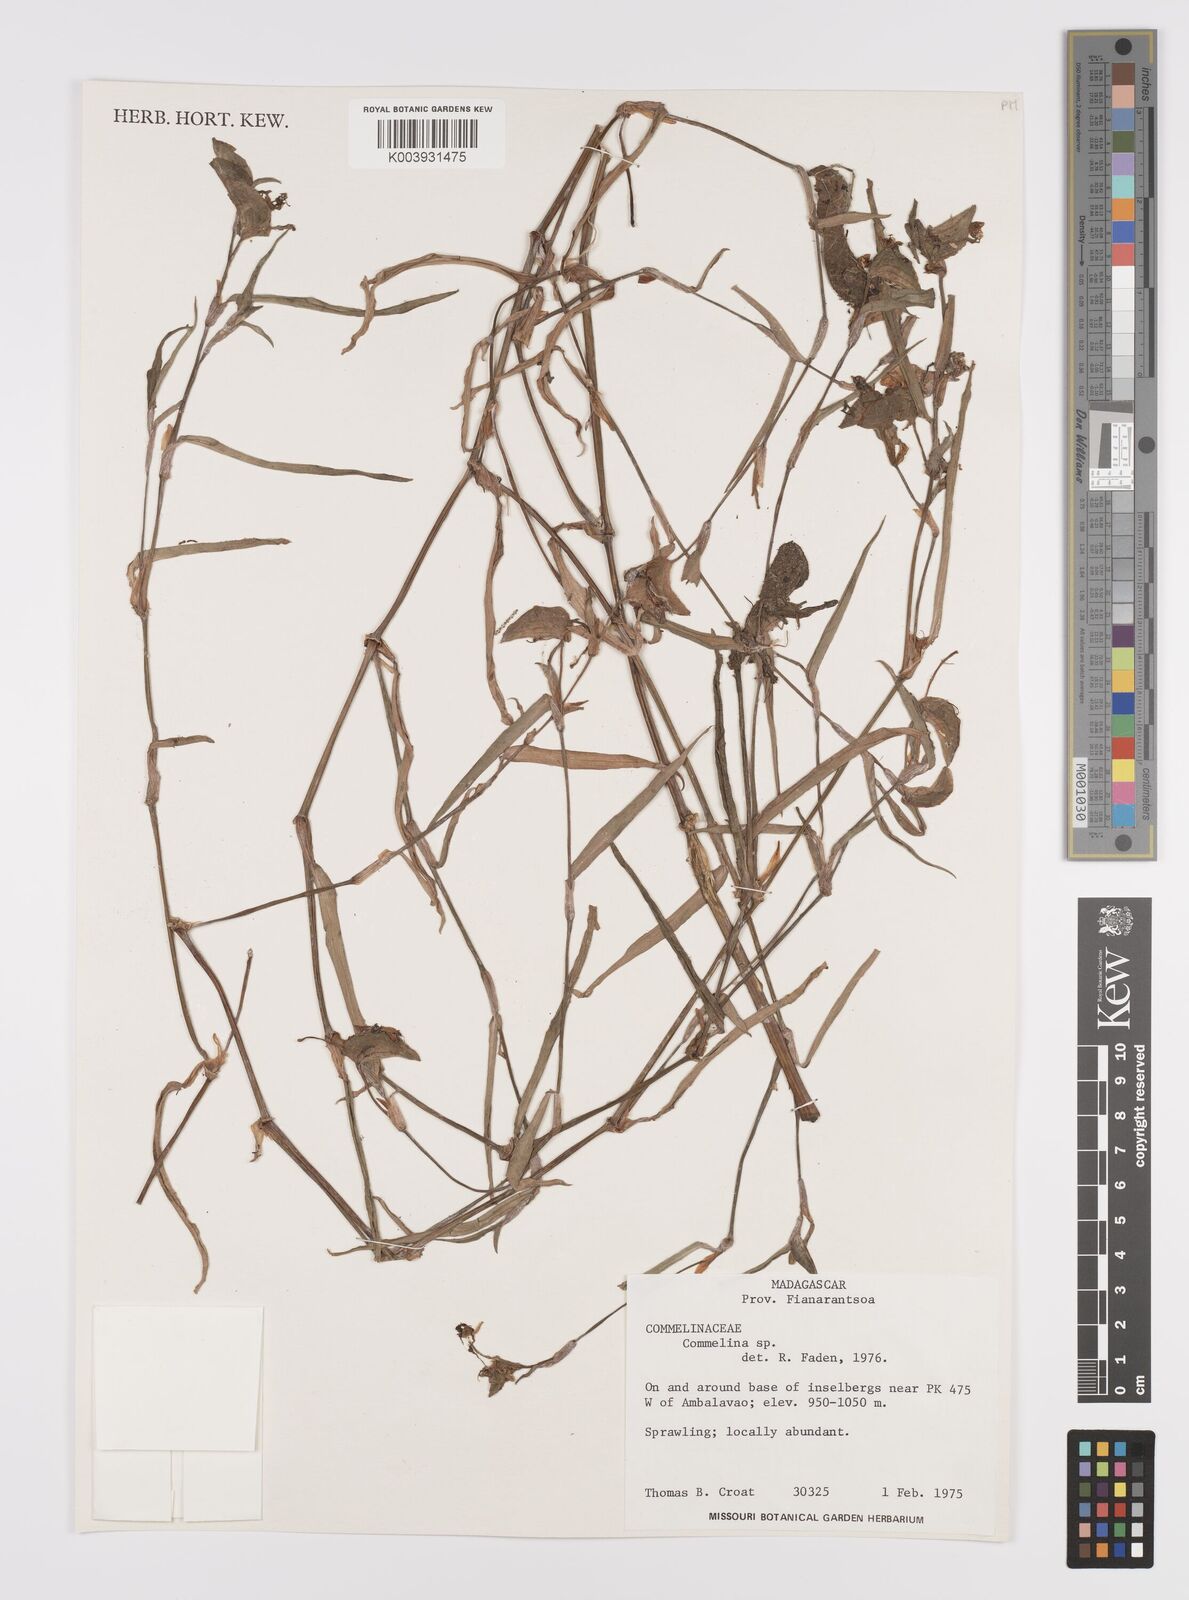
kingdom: Plantae
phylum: Tracheophyta
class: Liliopsida
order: Commelinales
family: Commelinaceae
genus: Commelina
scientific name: Commelina
